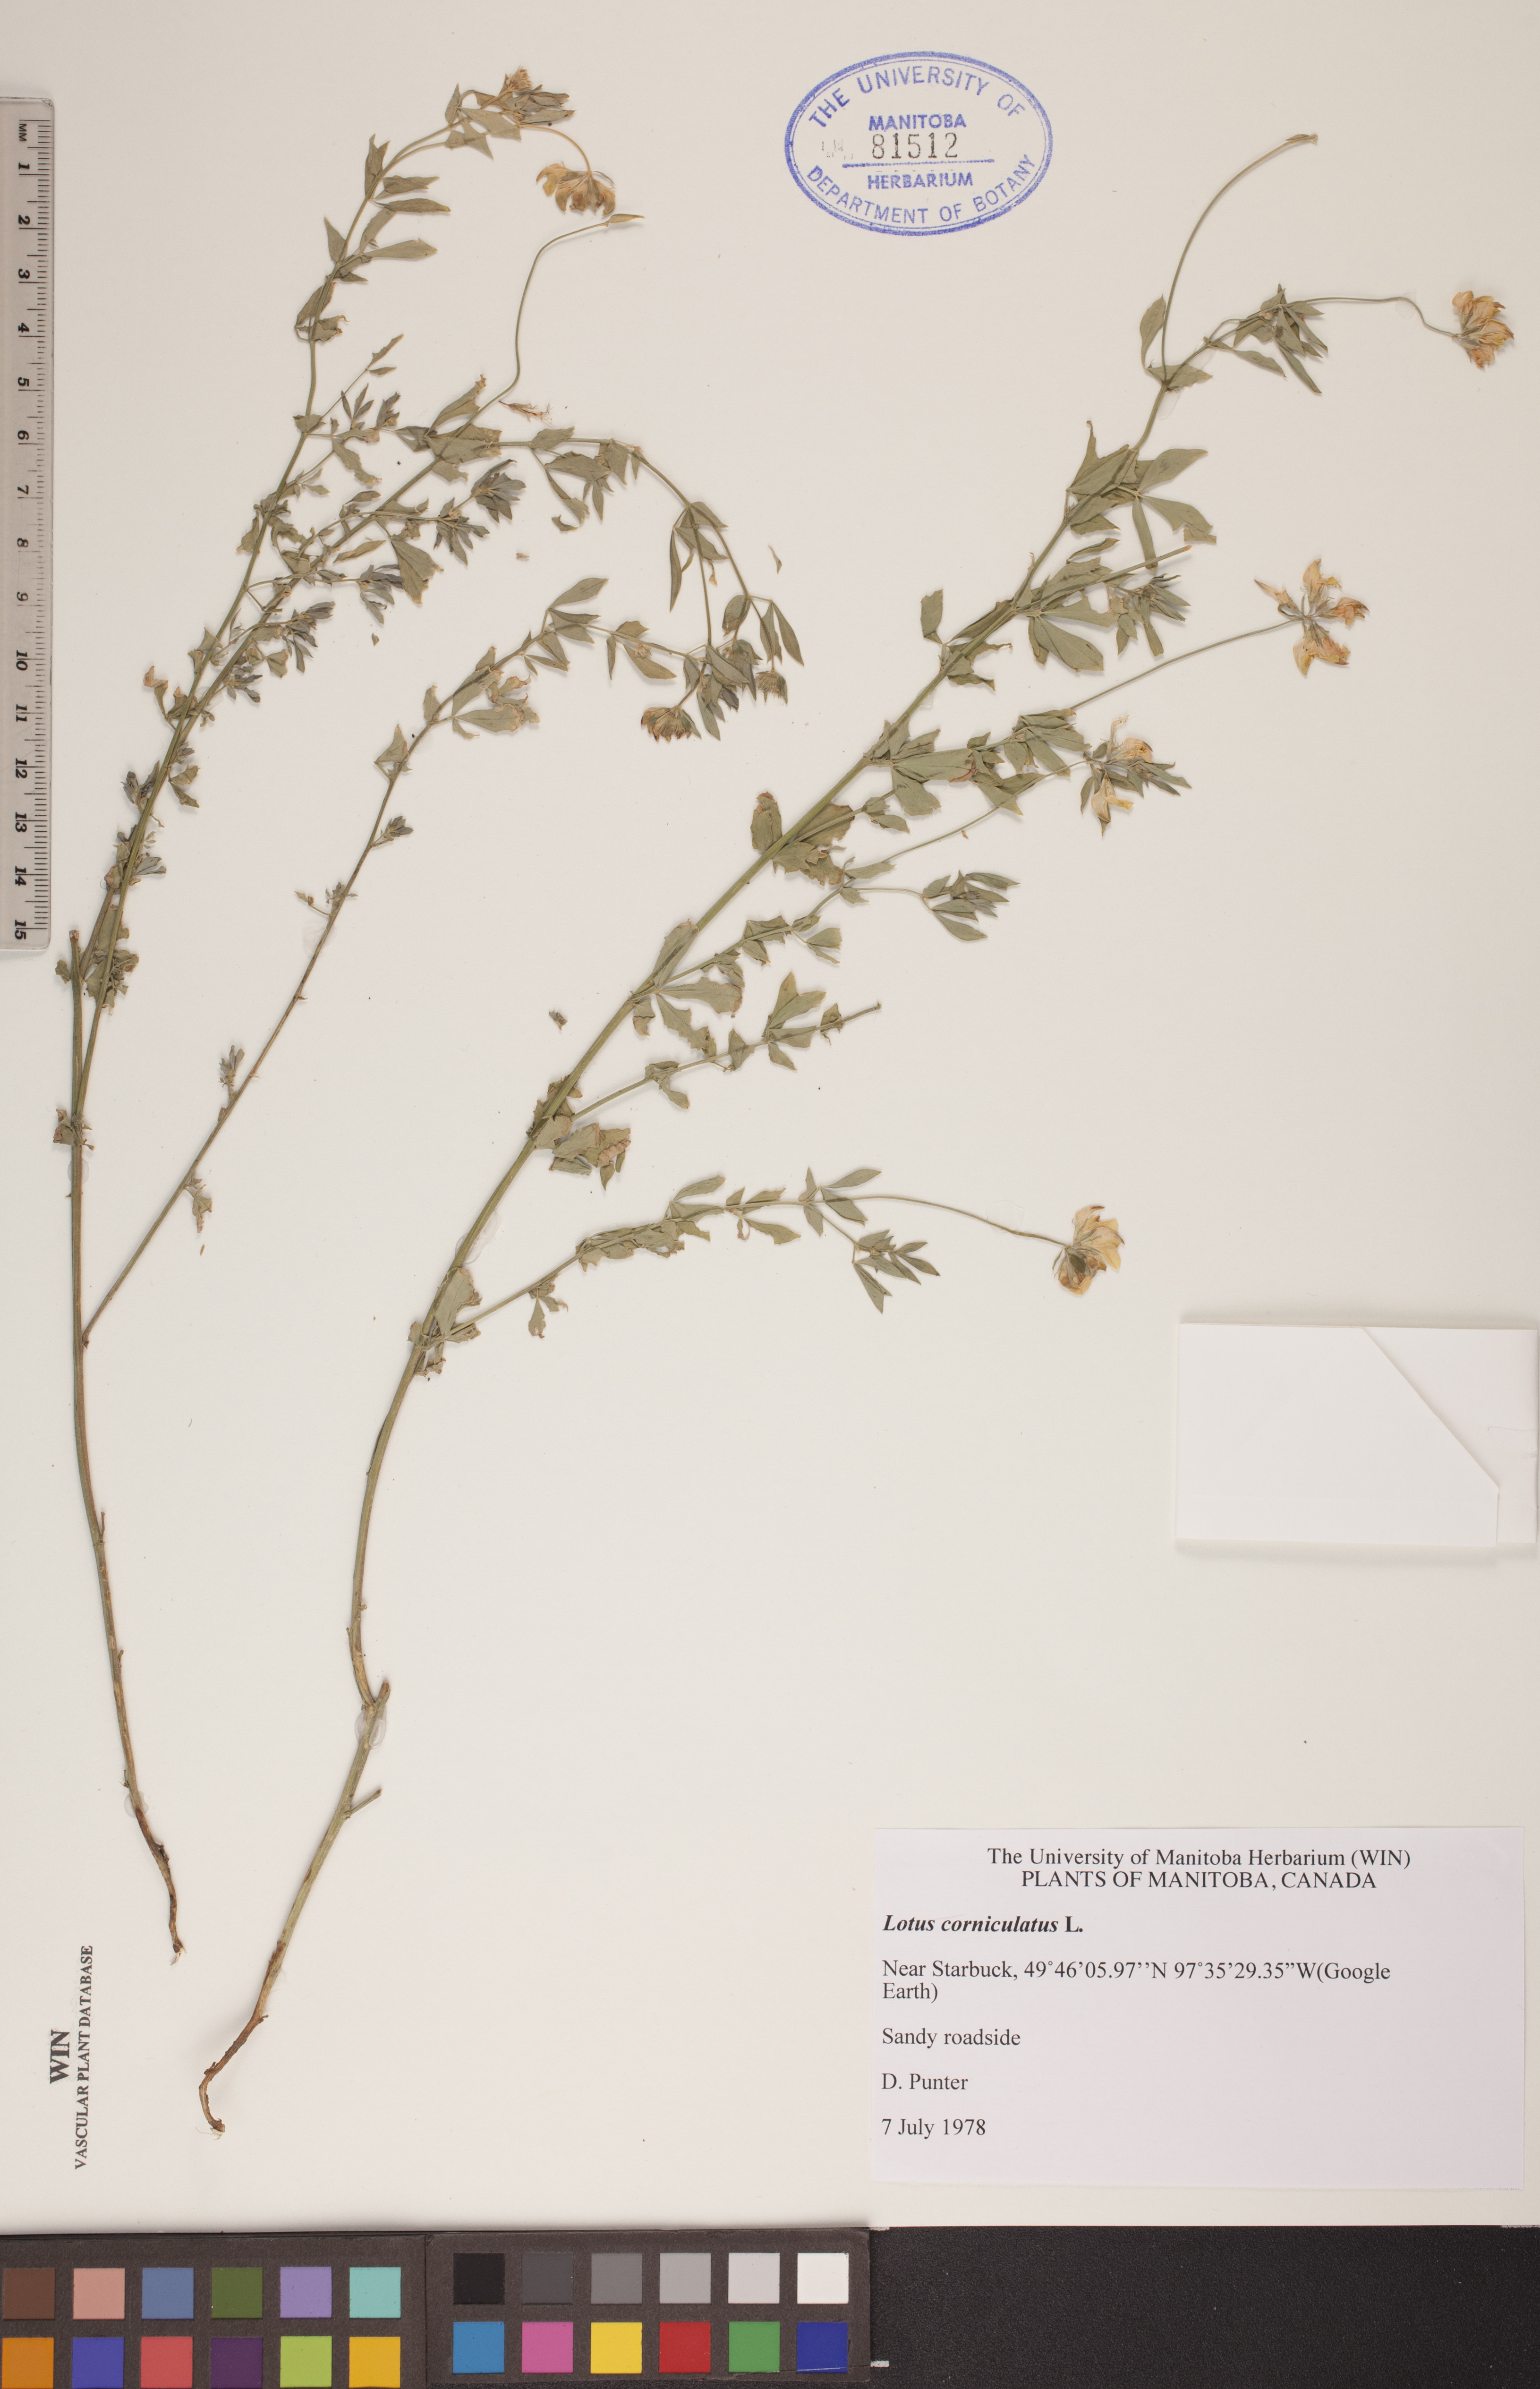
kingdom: Plantae
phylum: Tracheophyta
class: Magnoliopsida
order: Fabales
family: Fabaceae
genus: Lotus
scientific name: Lotus corniculatus
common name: Common bird's-foot-trefoil
